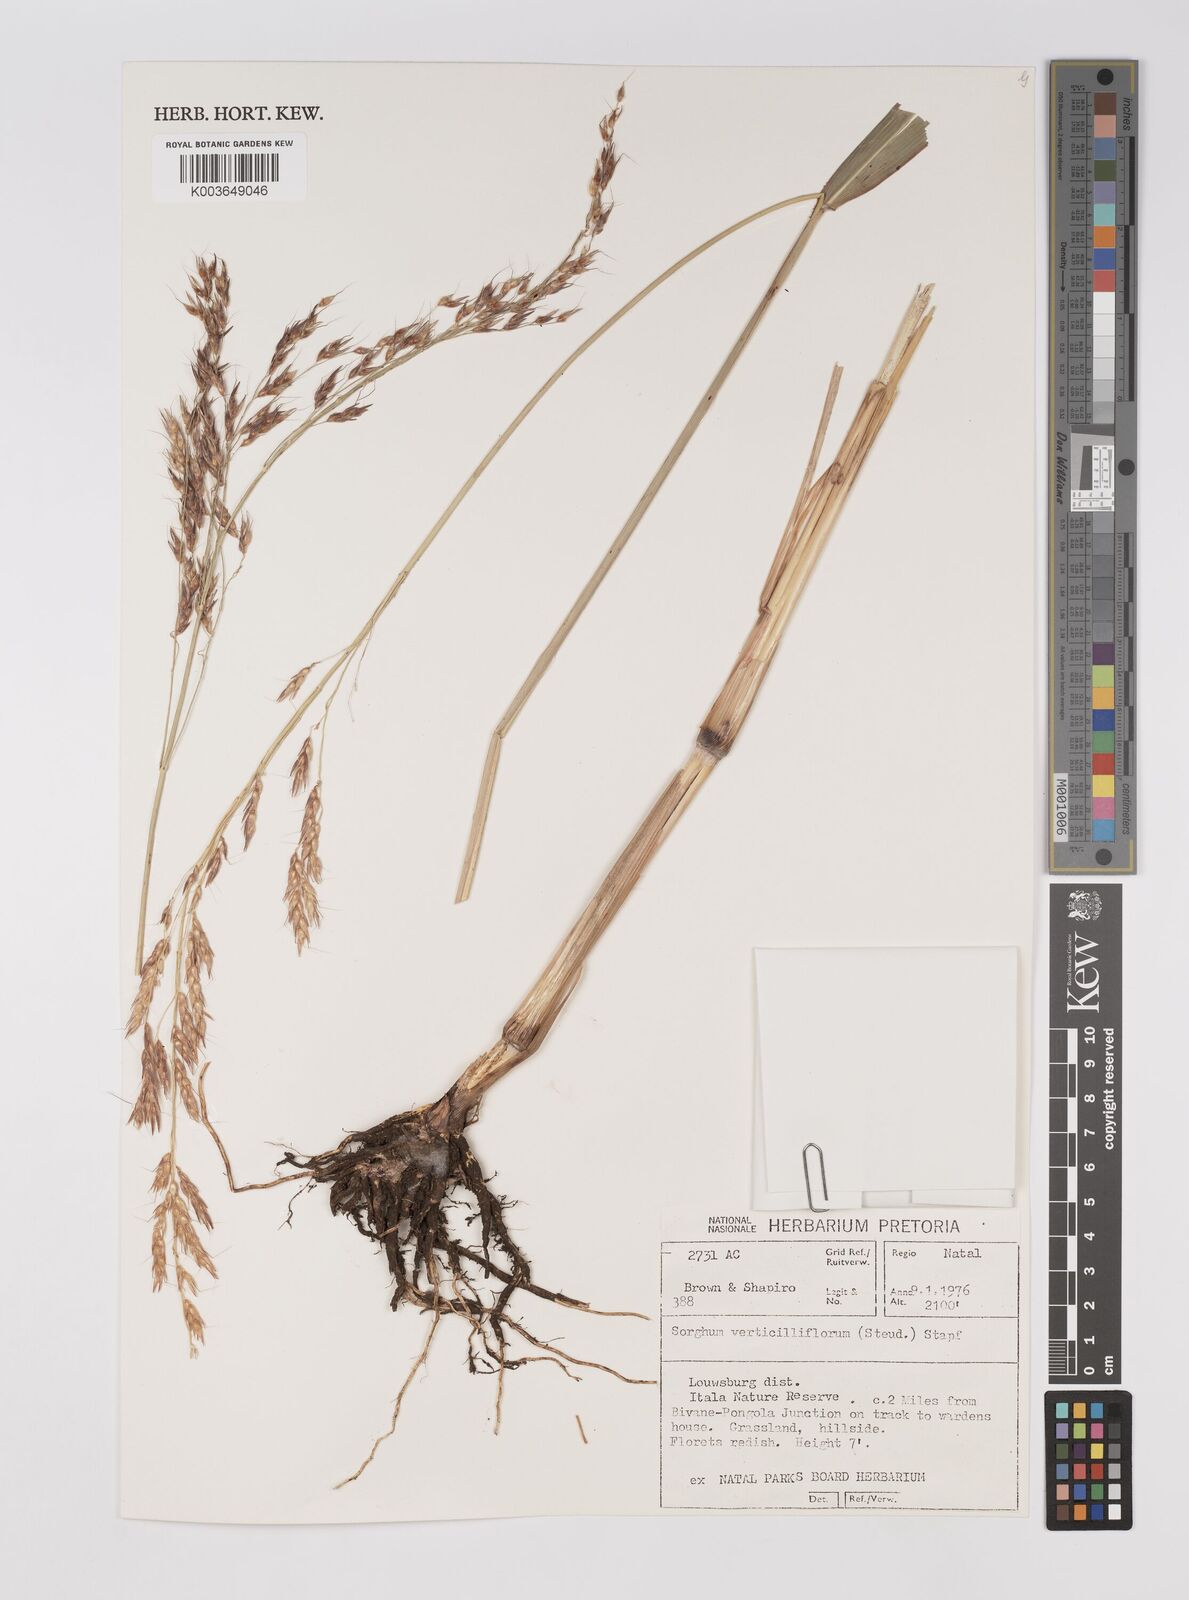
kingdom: Plantae
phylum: Tracheophyta
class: Liliopsida
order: Poales
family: Poaceae
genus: Sorghum
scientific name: Sorghum arundinaceum
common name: Sorghum
